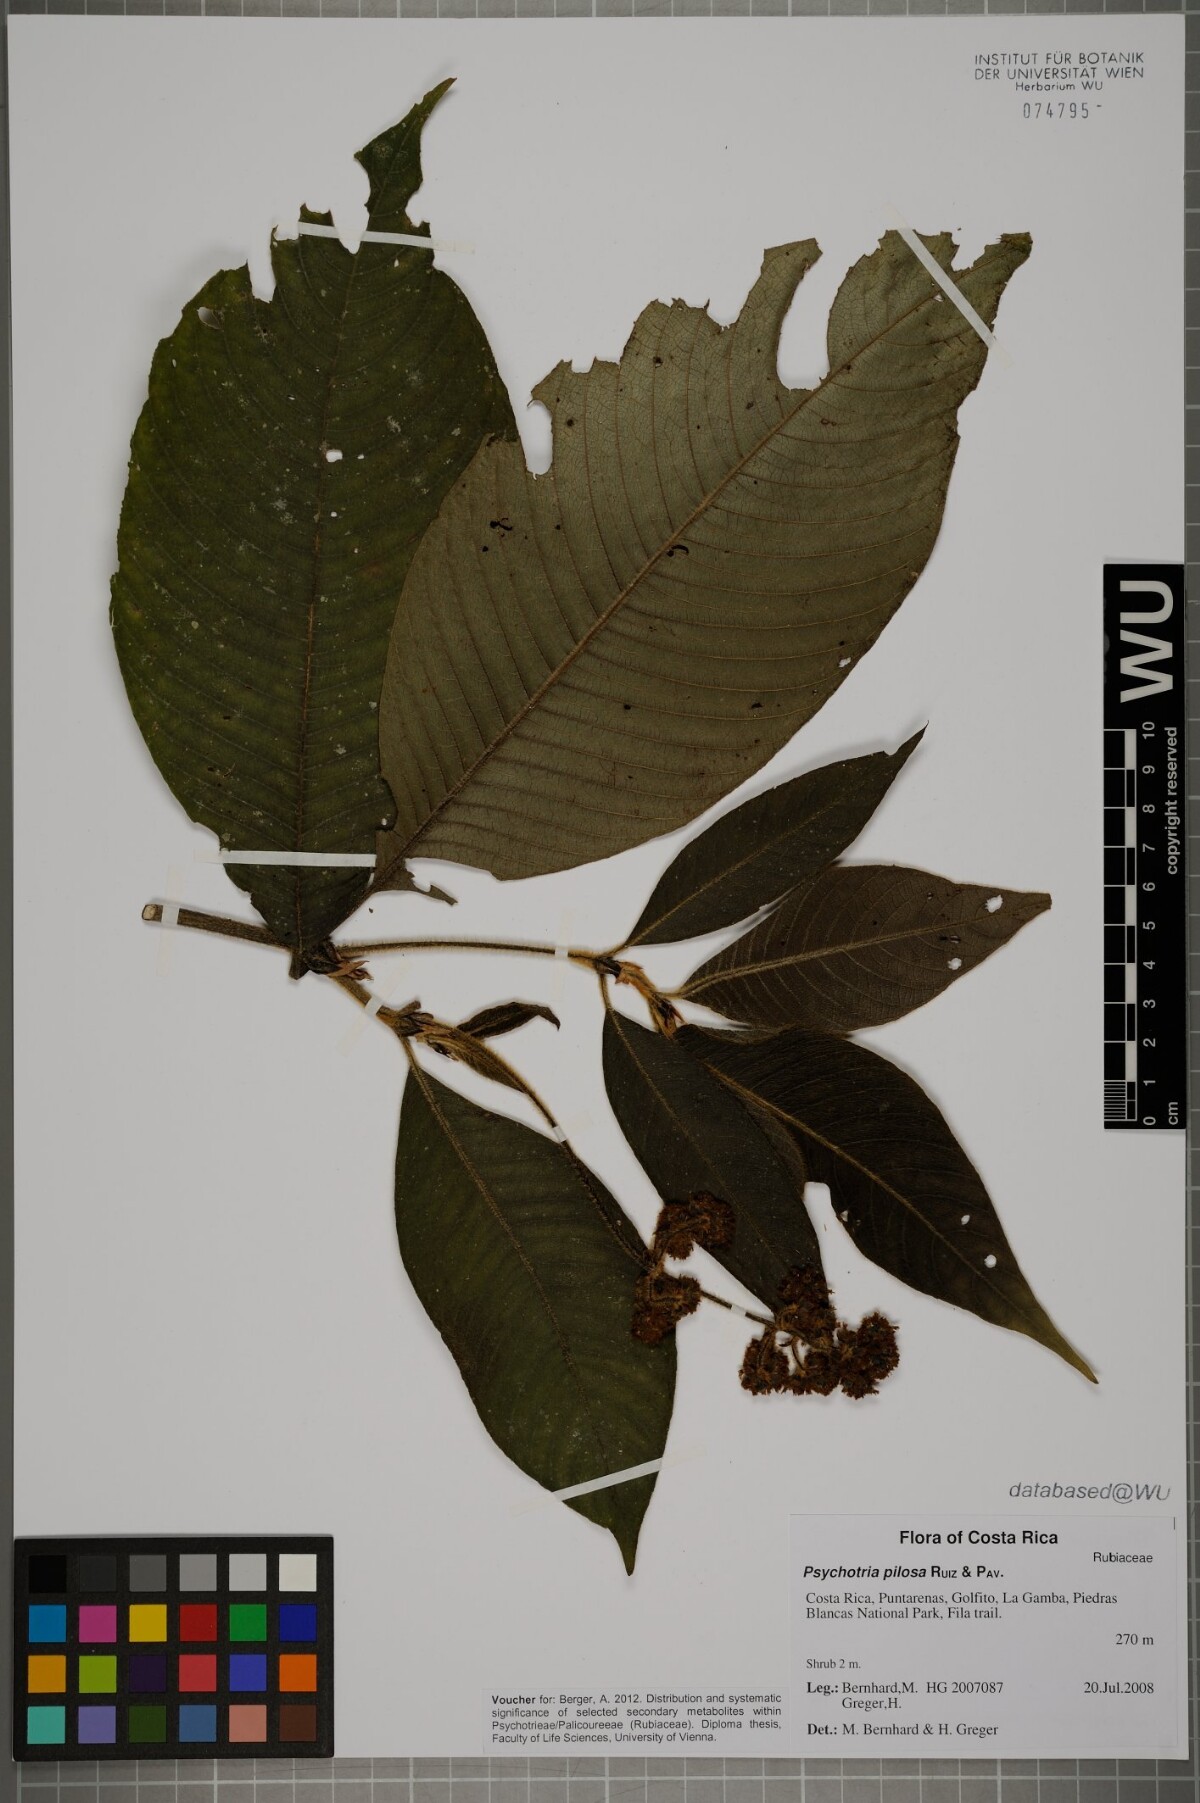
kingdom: Plantae
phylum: Tracheophyta
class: Magnoliopsida
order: Gentianales
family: Rubiaceae
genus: Palicourea
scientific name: Palicourea pilosa
